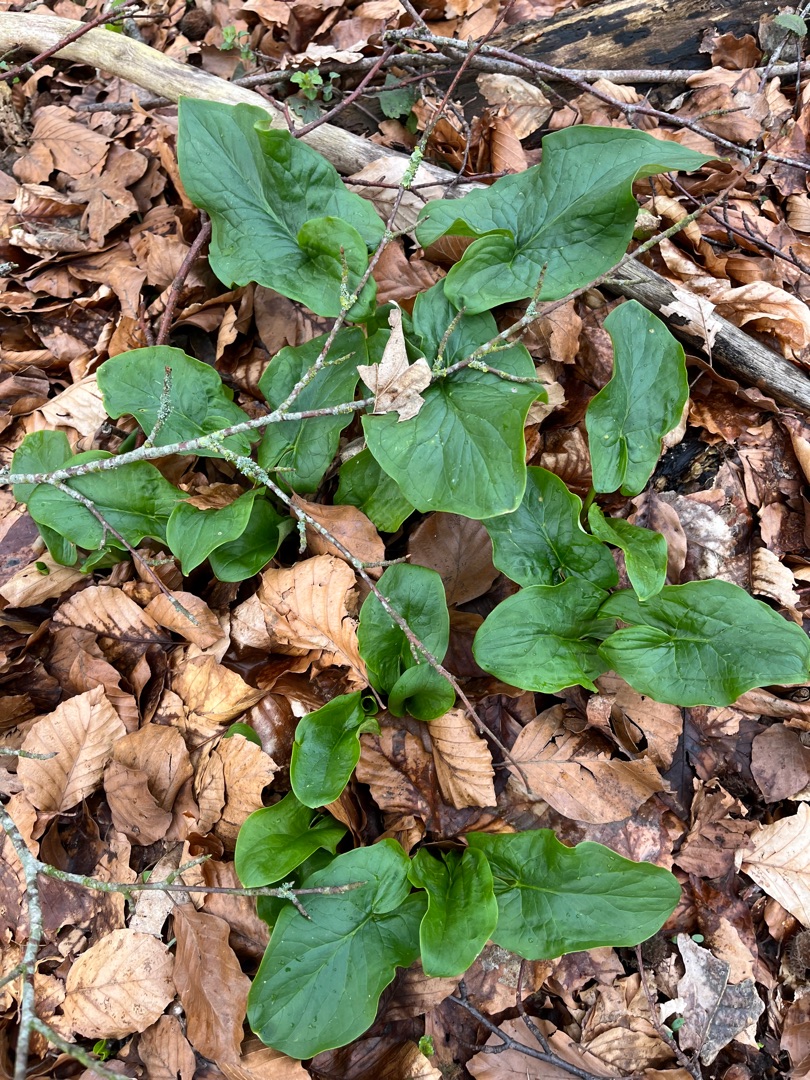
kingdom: Plantae
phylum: Tracheophyta
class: Liliopsida
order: Alismatales
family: Araceae
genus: Arum
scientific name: Arum
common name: Arumslægten
